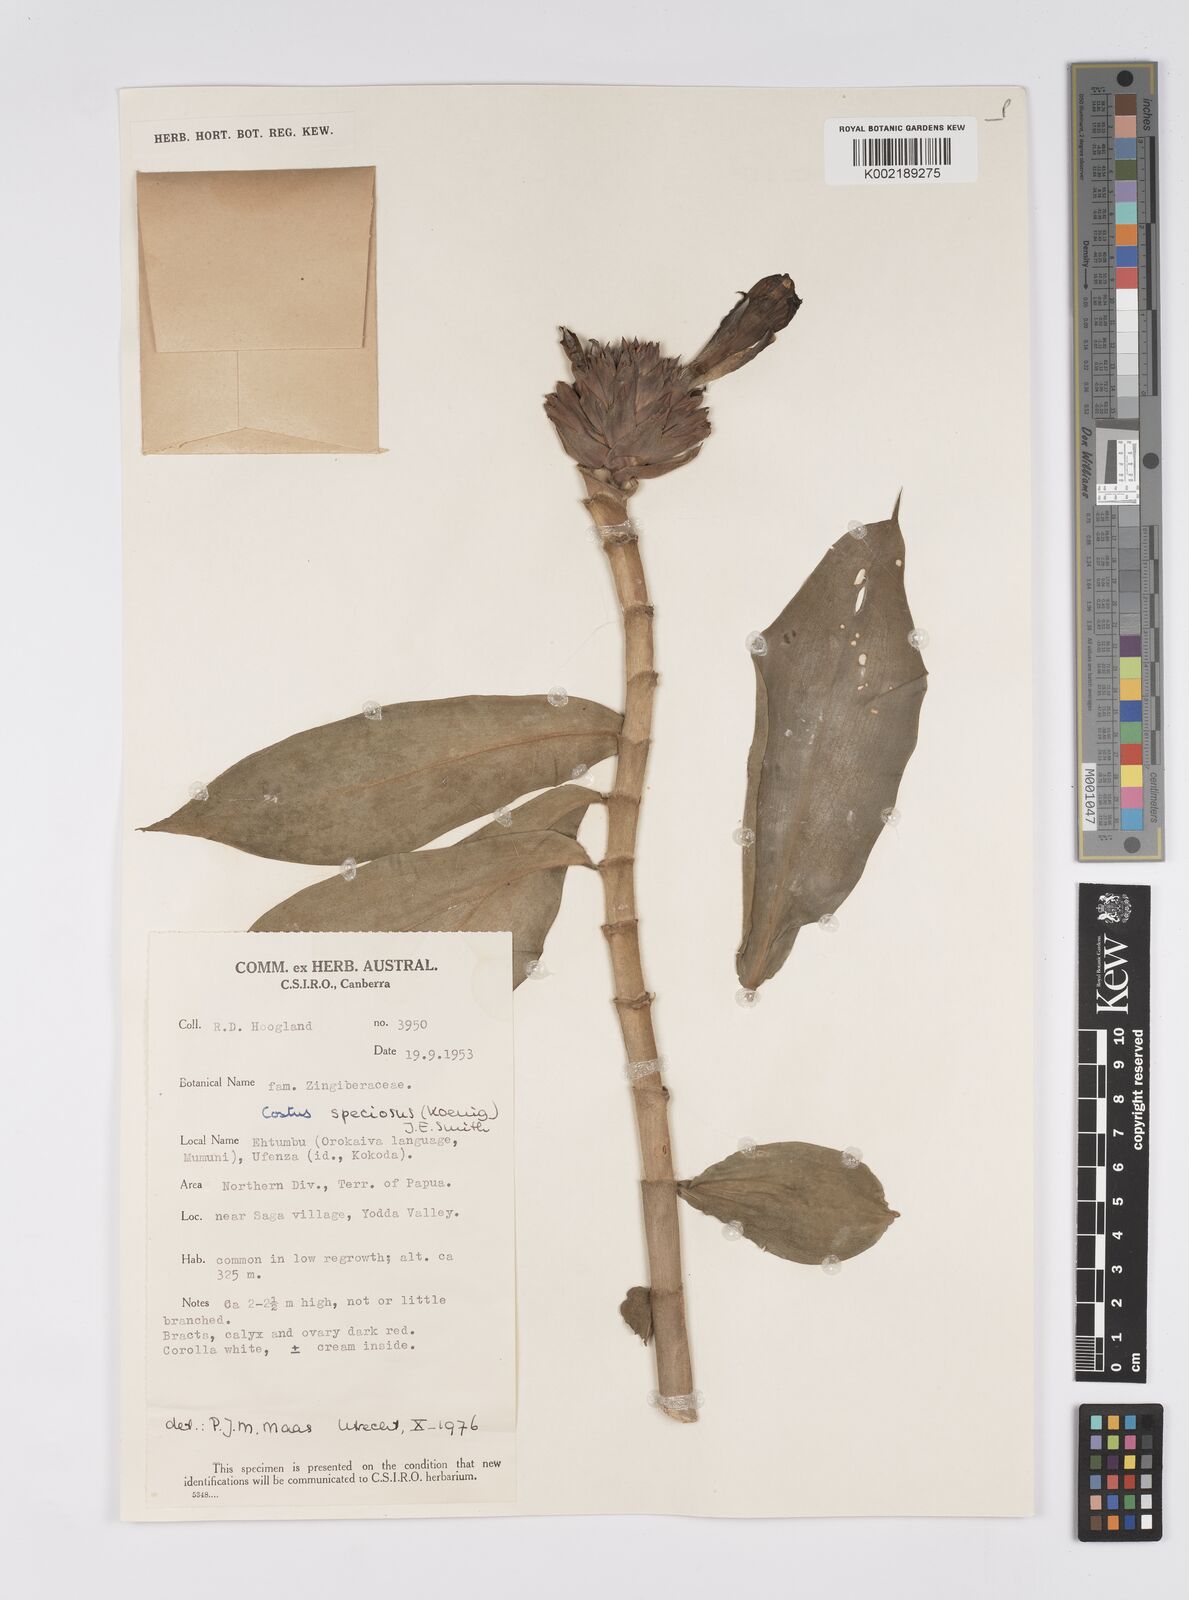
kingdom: Plantae
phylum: Tracheophyta
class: Liliopsida
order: Zingiberales
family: Costaceae
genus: Hellenia
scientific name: Hellenia speciosa
